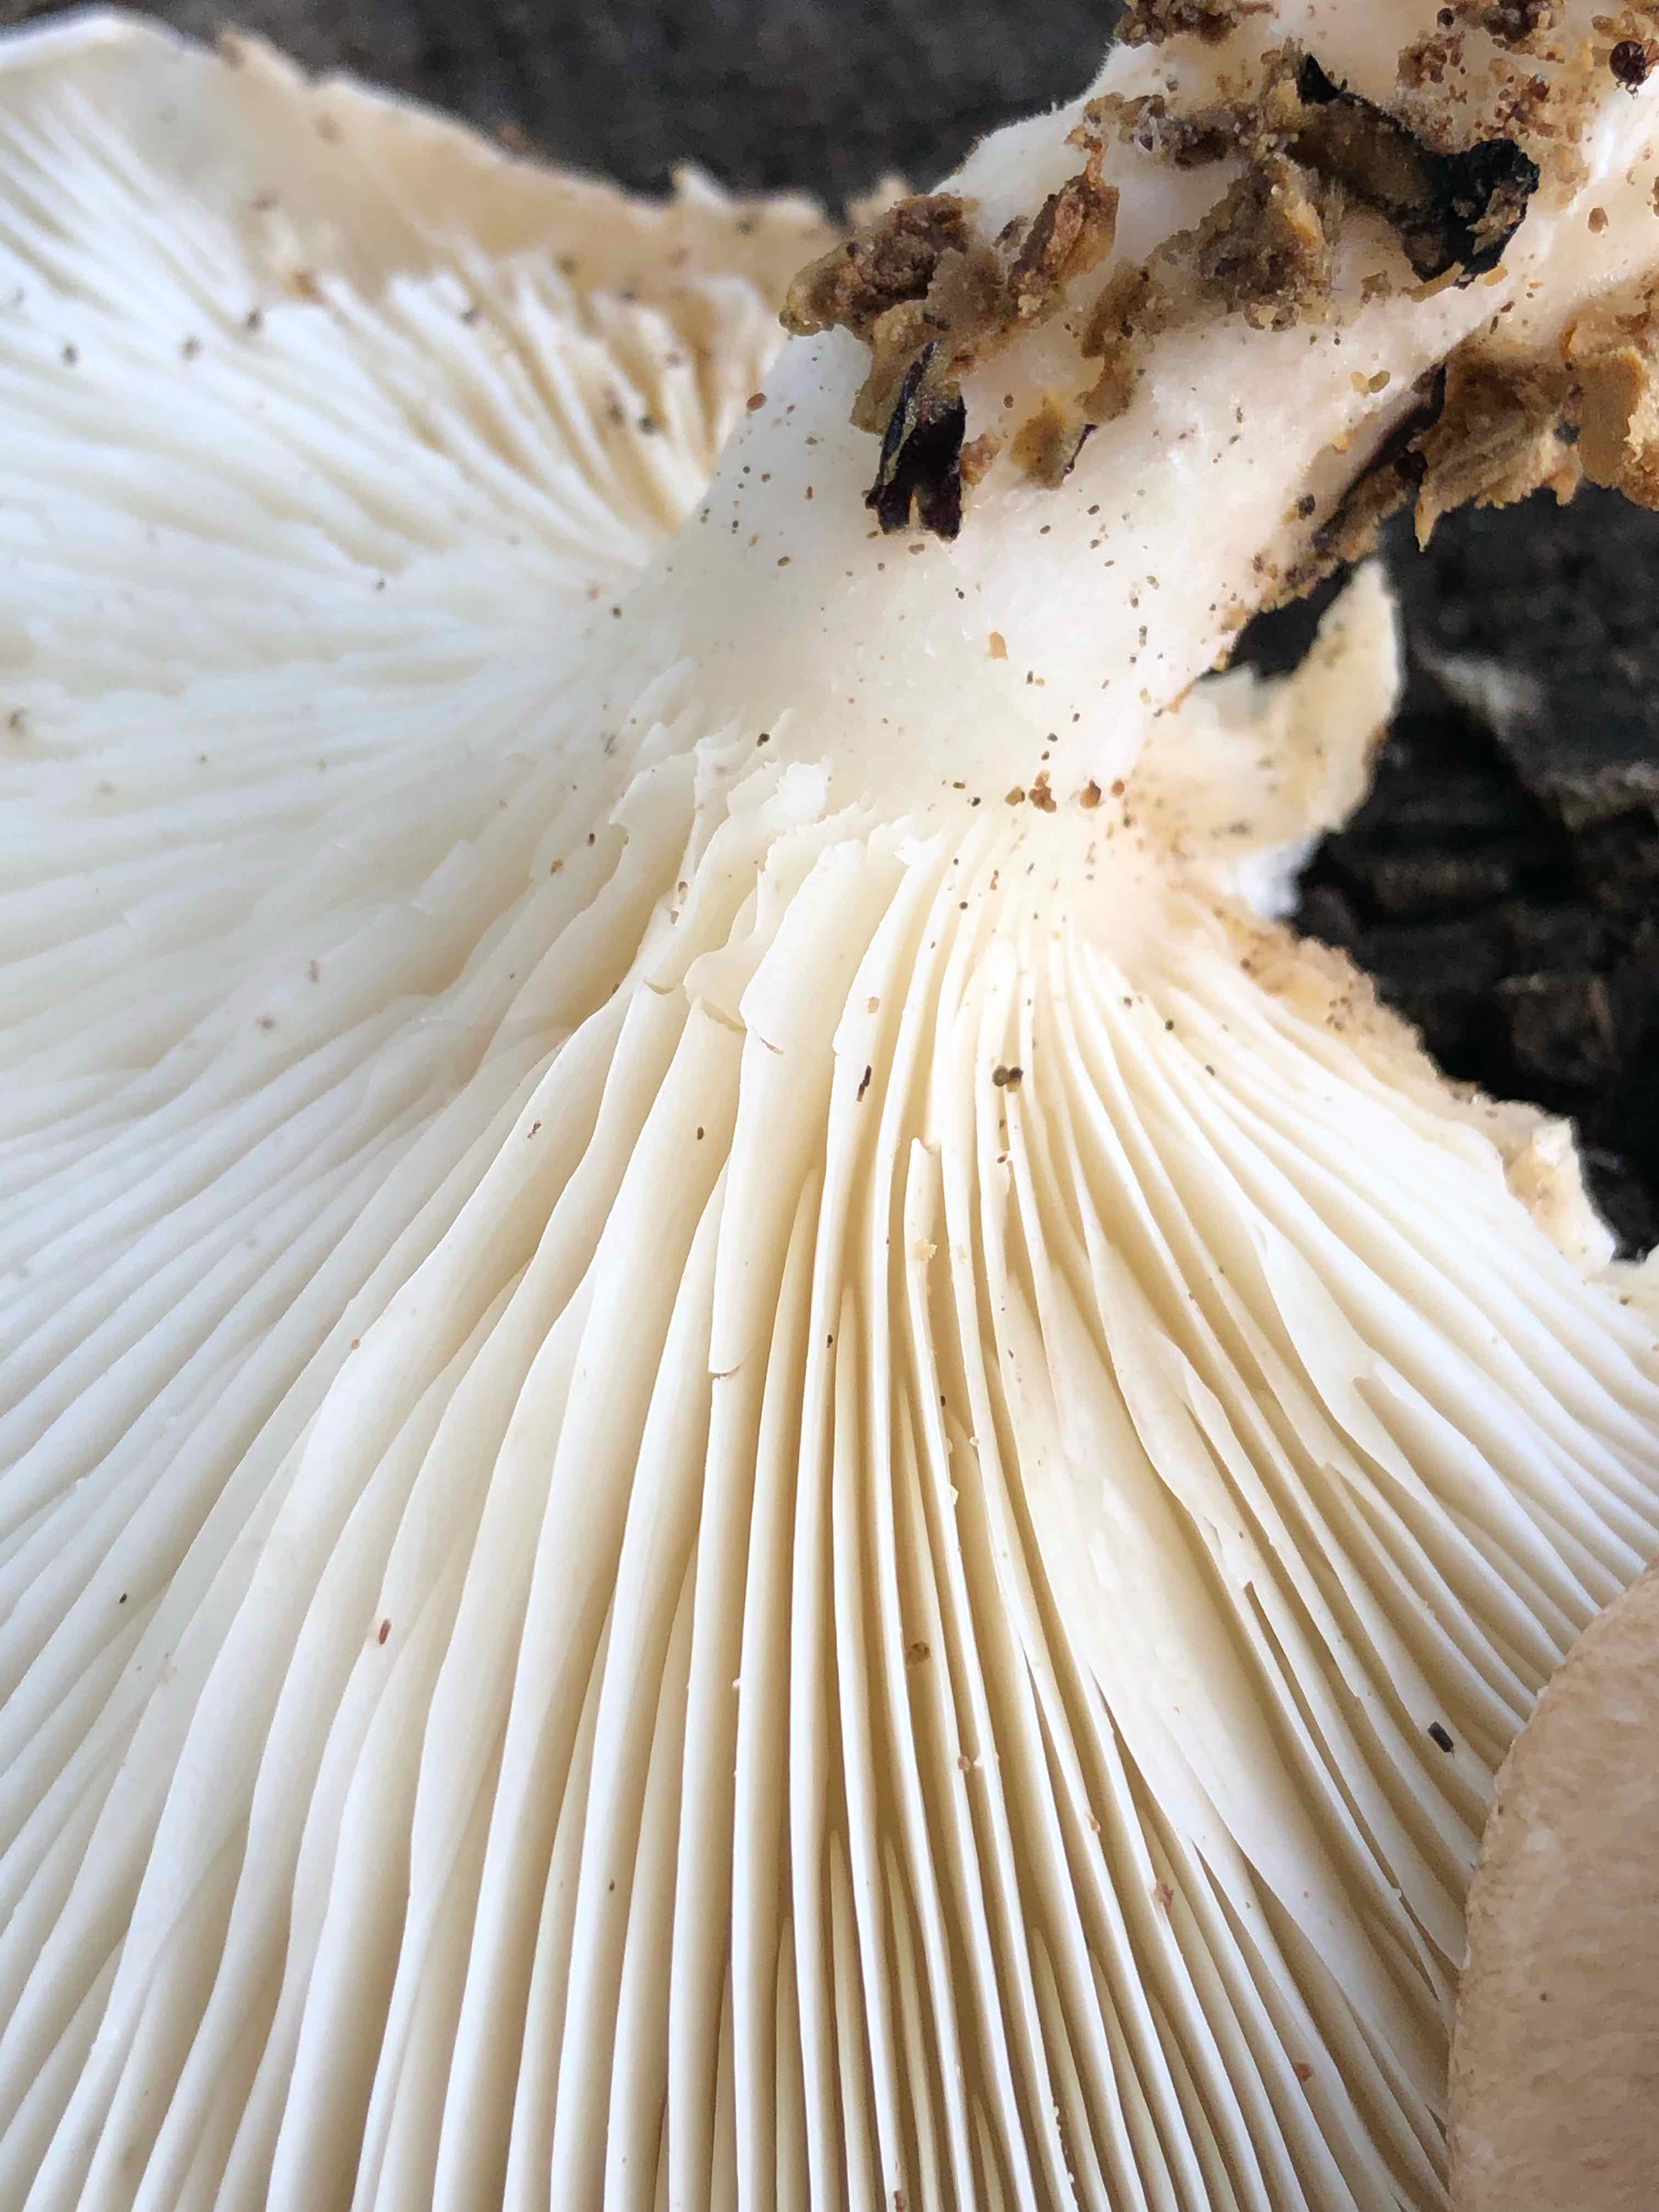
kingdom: Fungi
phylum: Basidiomycota
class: Agaricomycetes
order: Agaricales
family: Pleurotaceae
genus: Pleurotus
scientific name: Pleurotus dryinus
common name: korkagtig østershat
